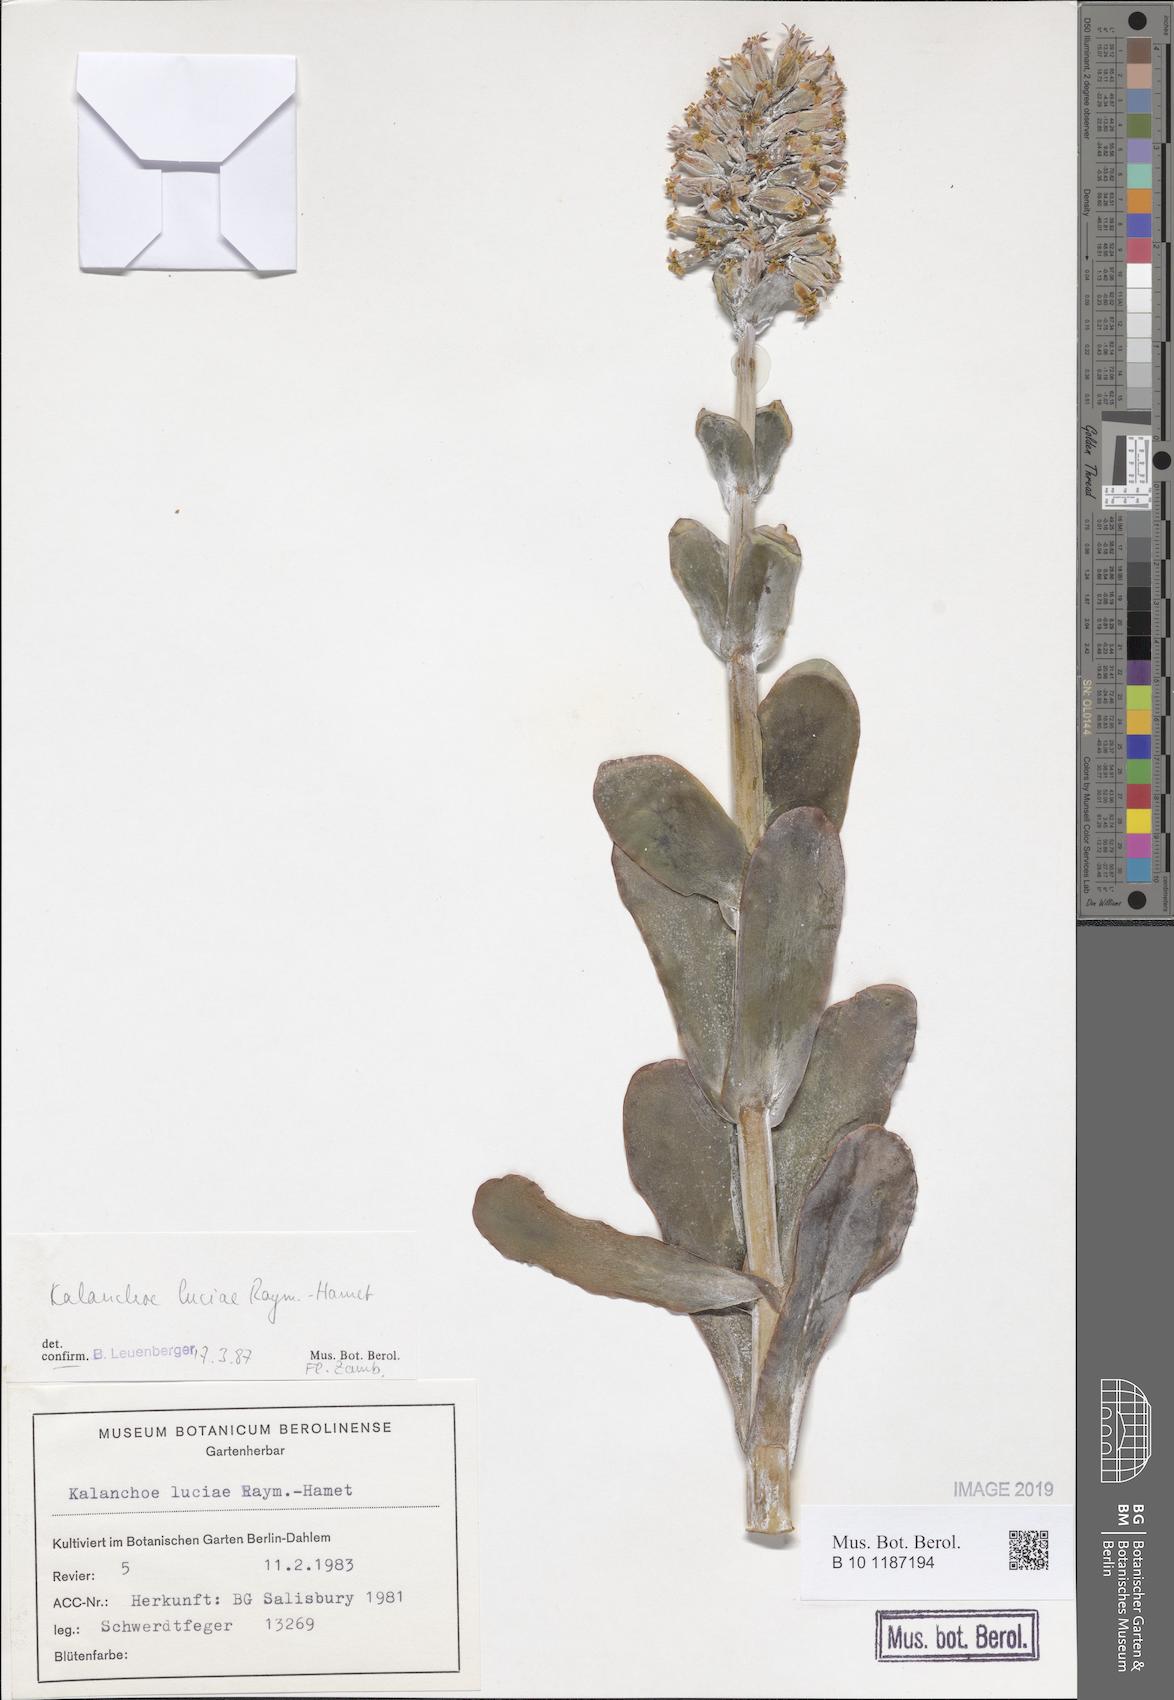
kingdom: Plantae
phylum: Tracheophyta
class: Magnoliopsida
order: Saxifragales
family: Crassulaceae
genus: Kalanchoe
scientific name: Kalanchoe luciae
